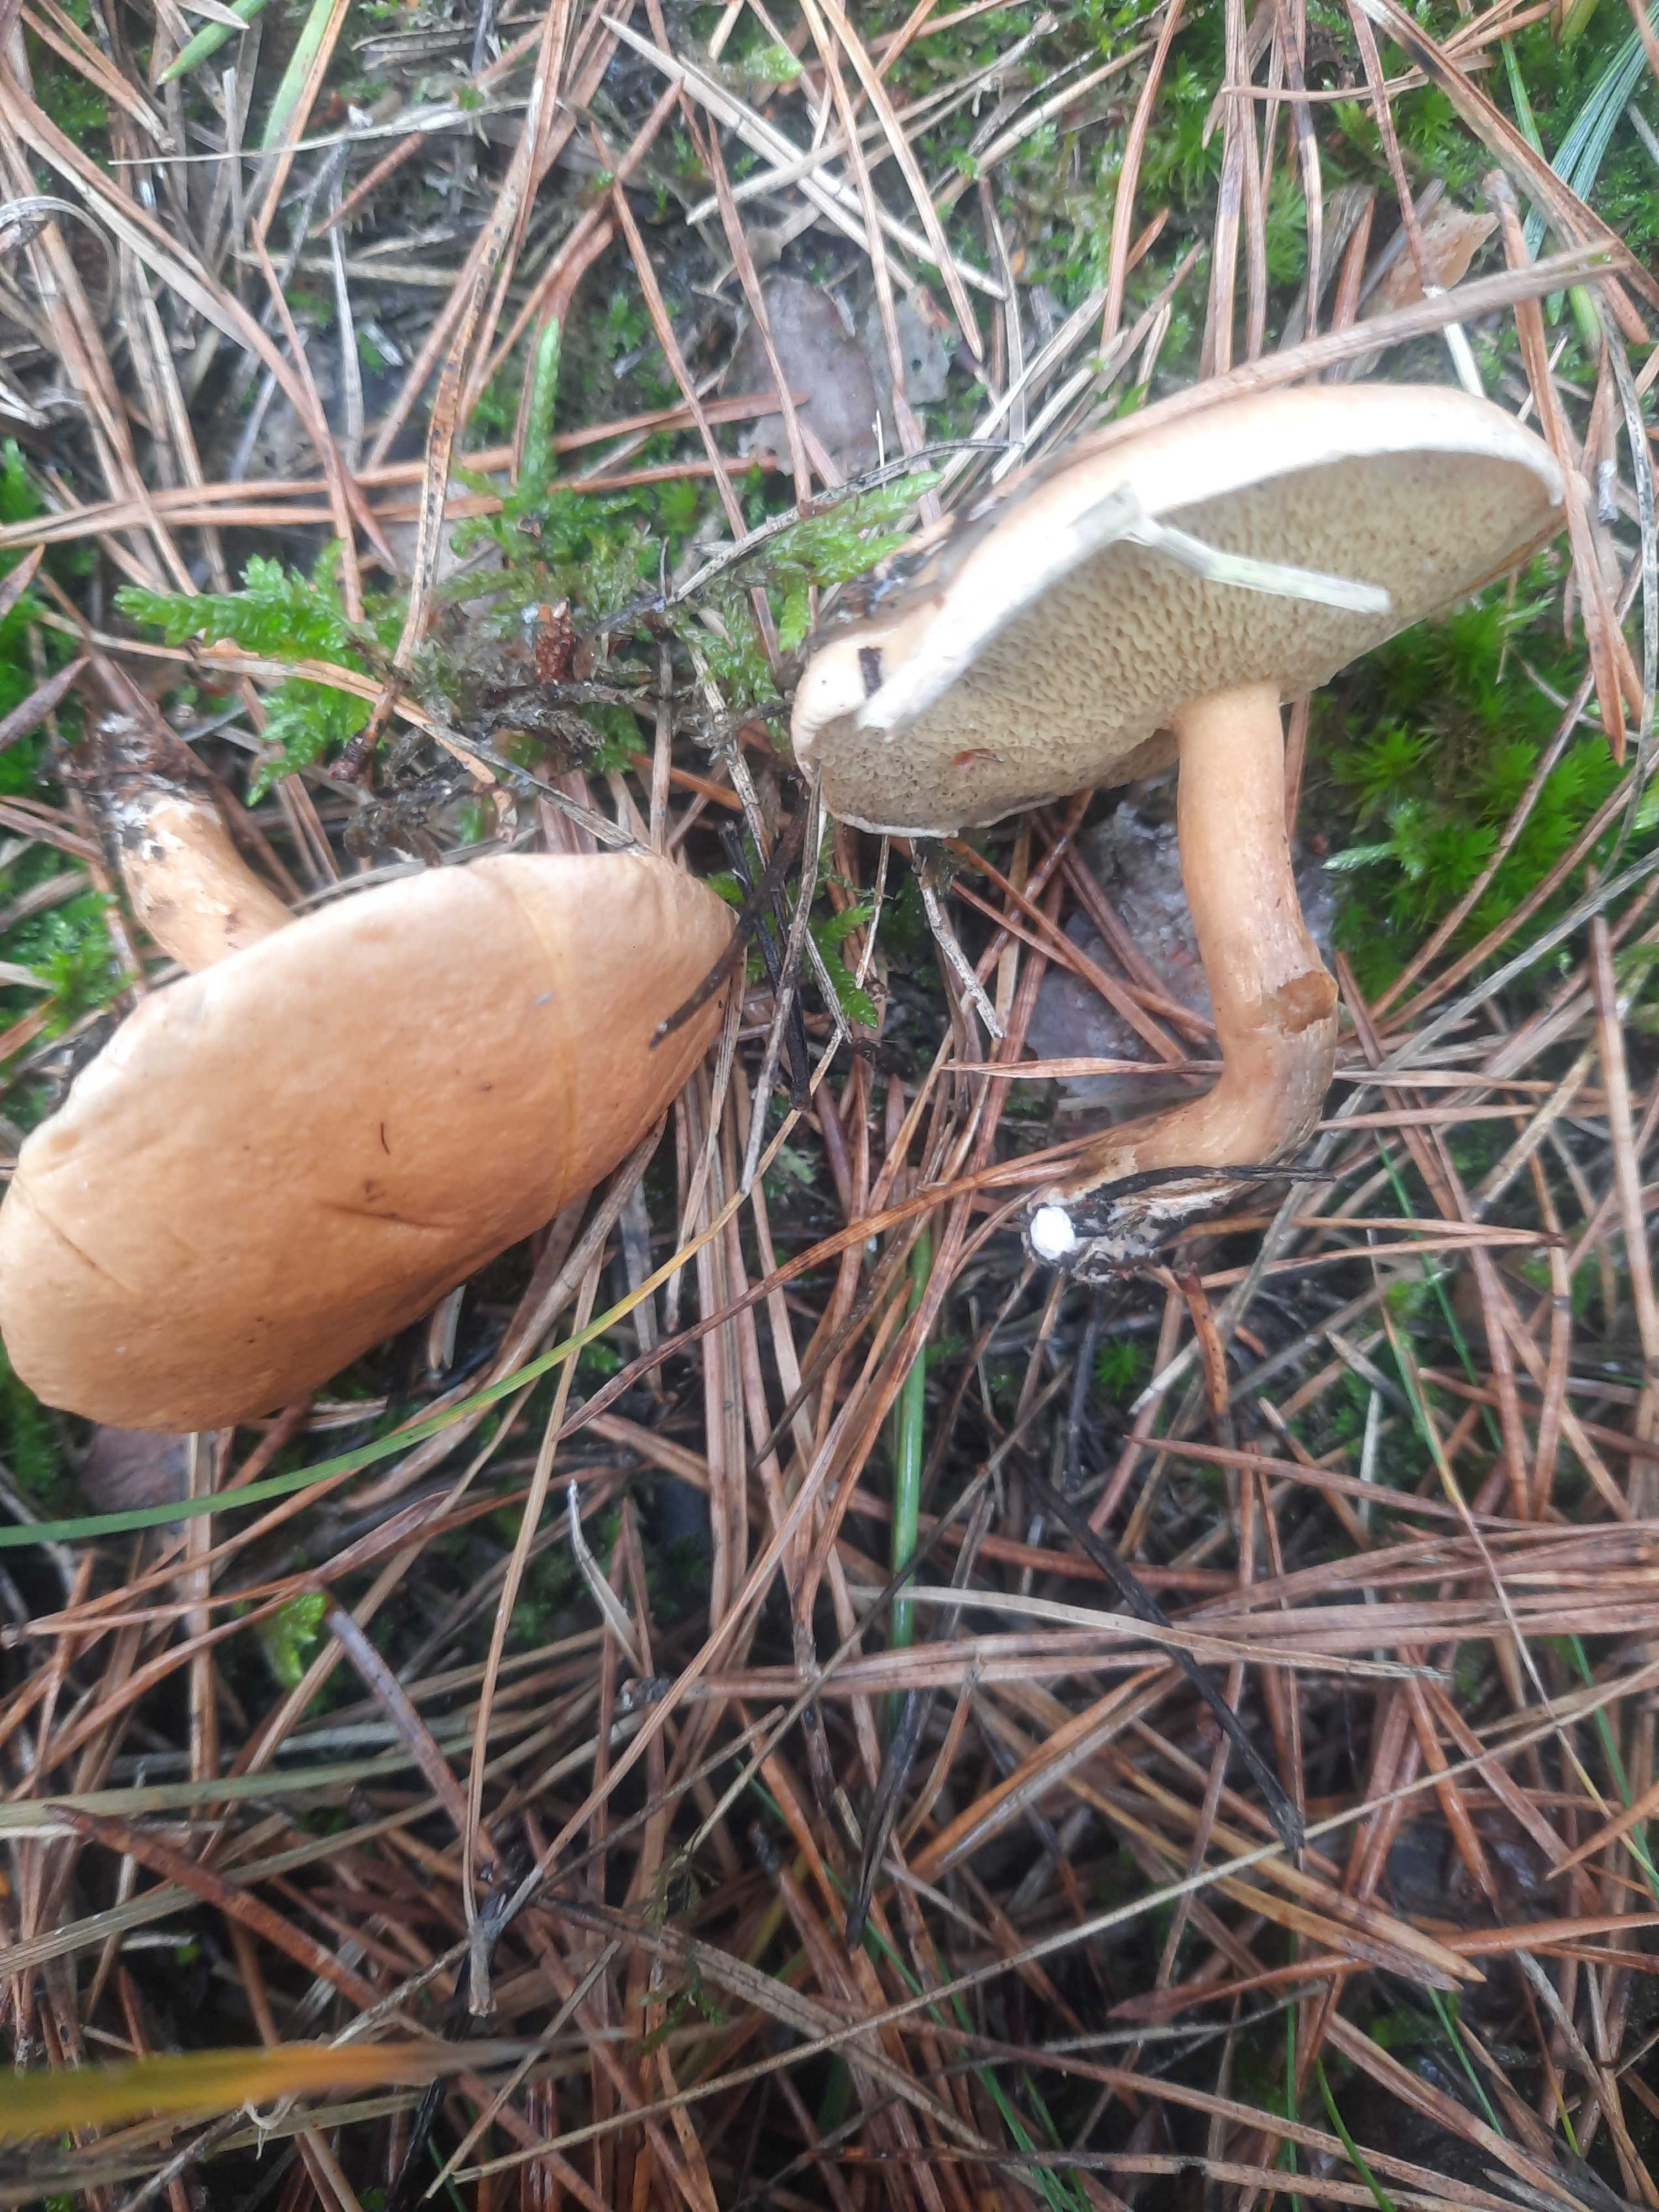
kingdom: Fungi
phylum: Basidiomycota
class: Agaricomycetes
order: Boletales
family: Suillaceae
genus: Suillus
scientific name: Suillus bovinus
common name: grovporet slimrørhat
